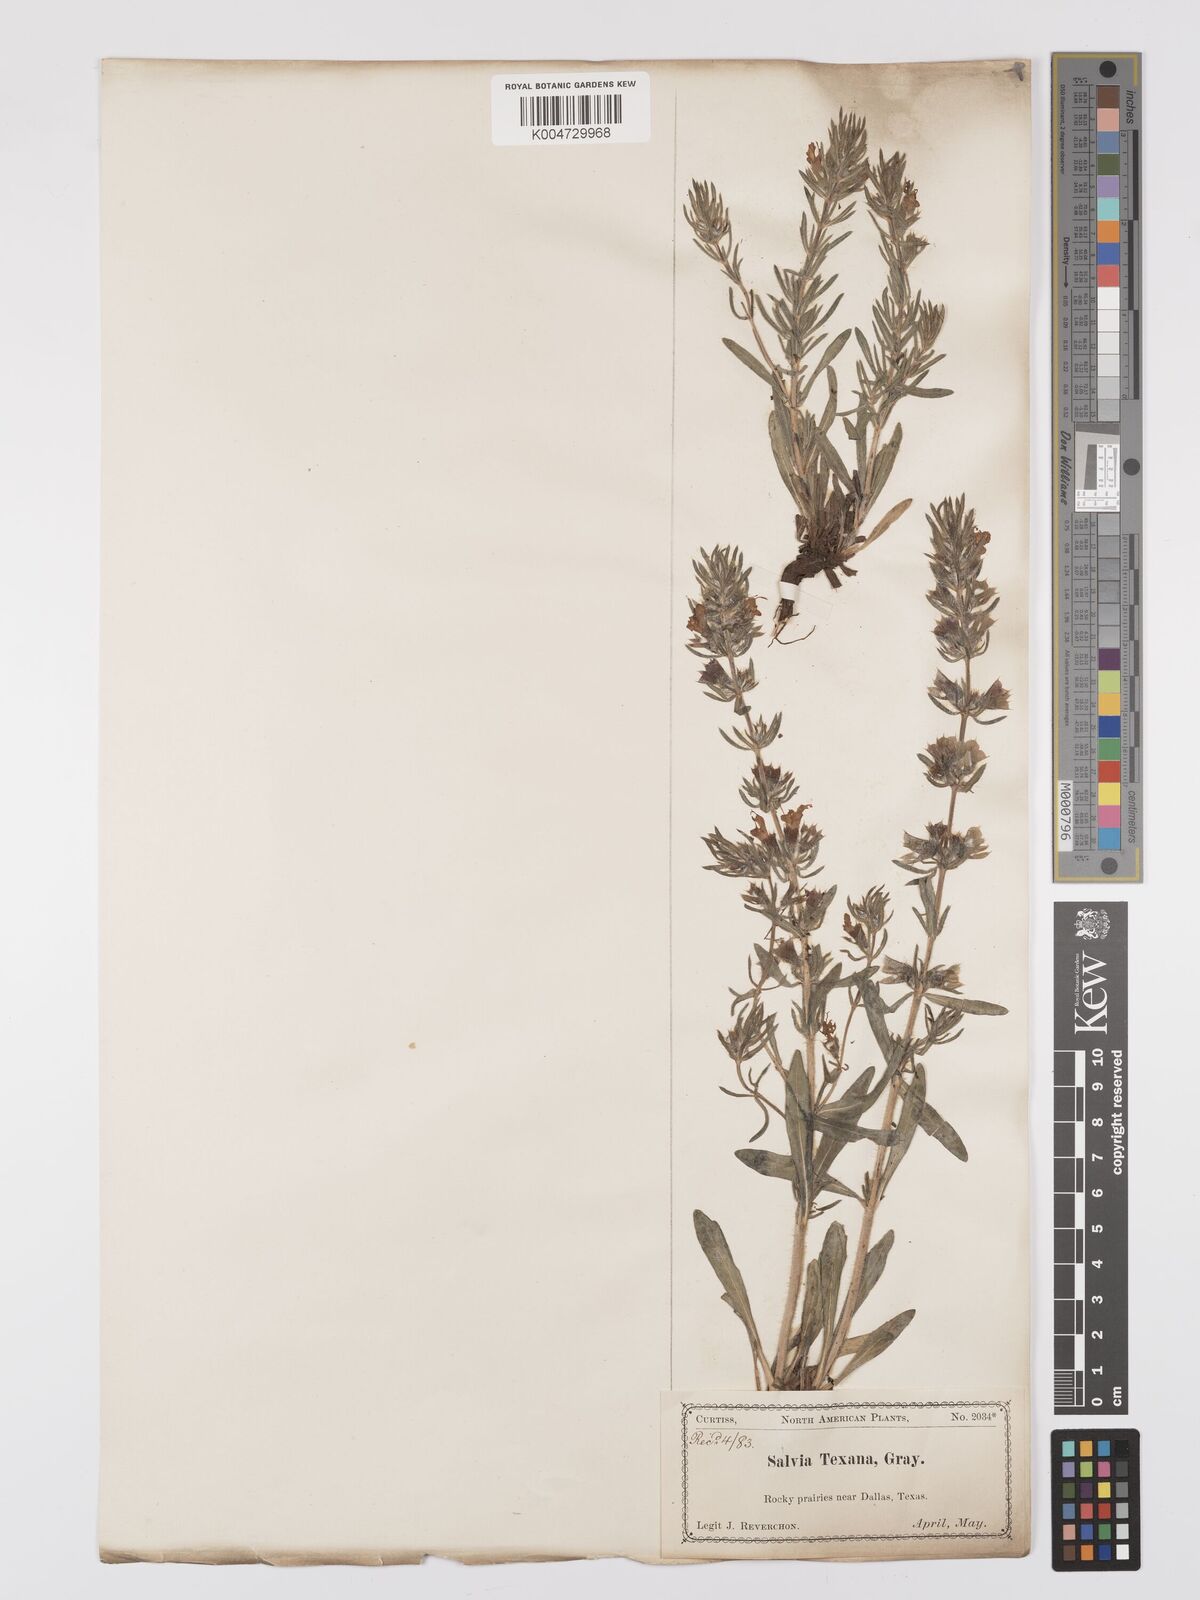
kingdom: Plantae
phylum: Tracheophyta
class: Magnoliopsida
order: Lamiales
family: Lamiaceae
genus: Salvia
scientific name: Salvia texana
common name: Texas sage
